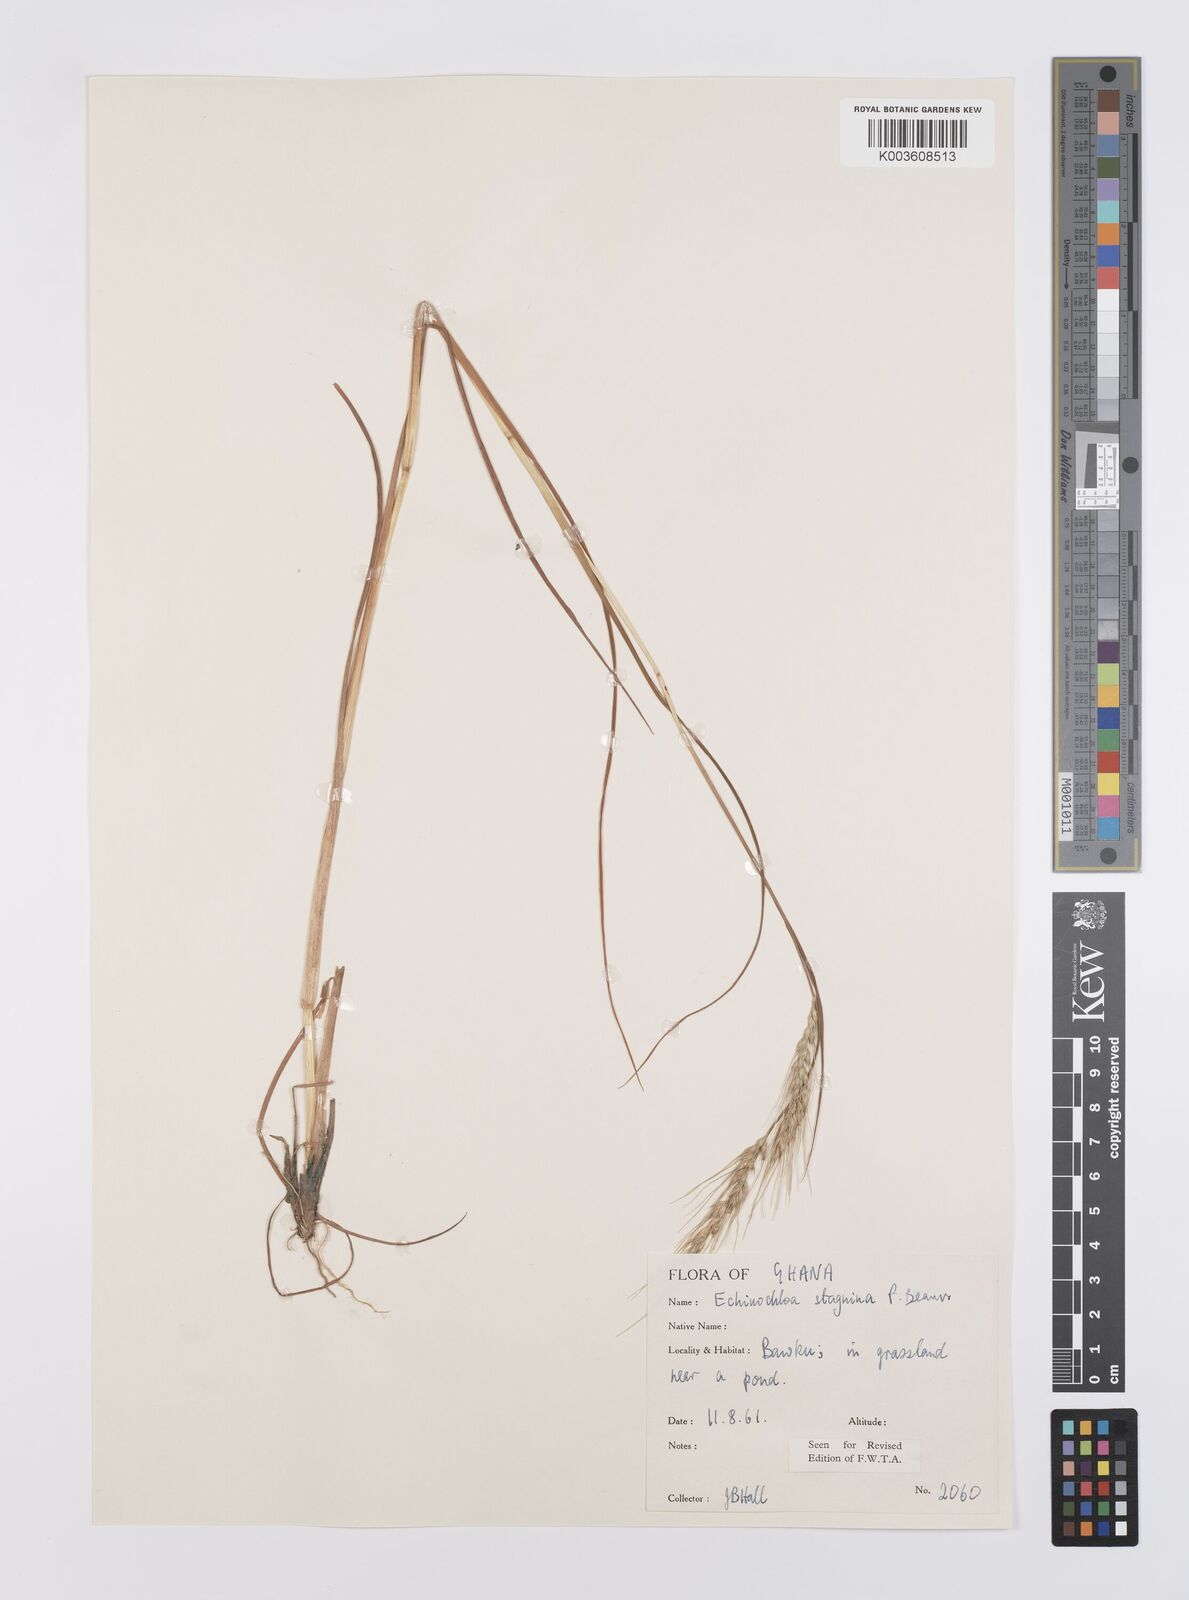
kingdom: Plantae
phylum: Tracheophyta
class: Liliopsida
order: Poales
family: Poaceae
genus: Echinochloa
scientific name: Echinochloa stagnina
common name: Burgu grass
